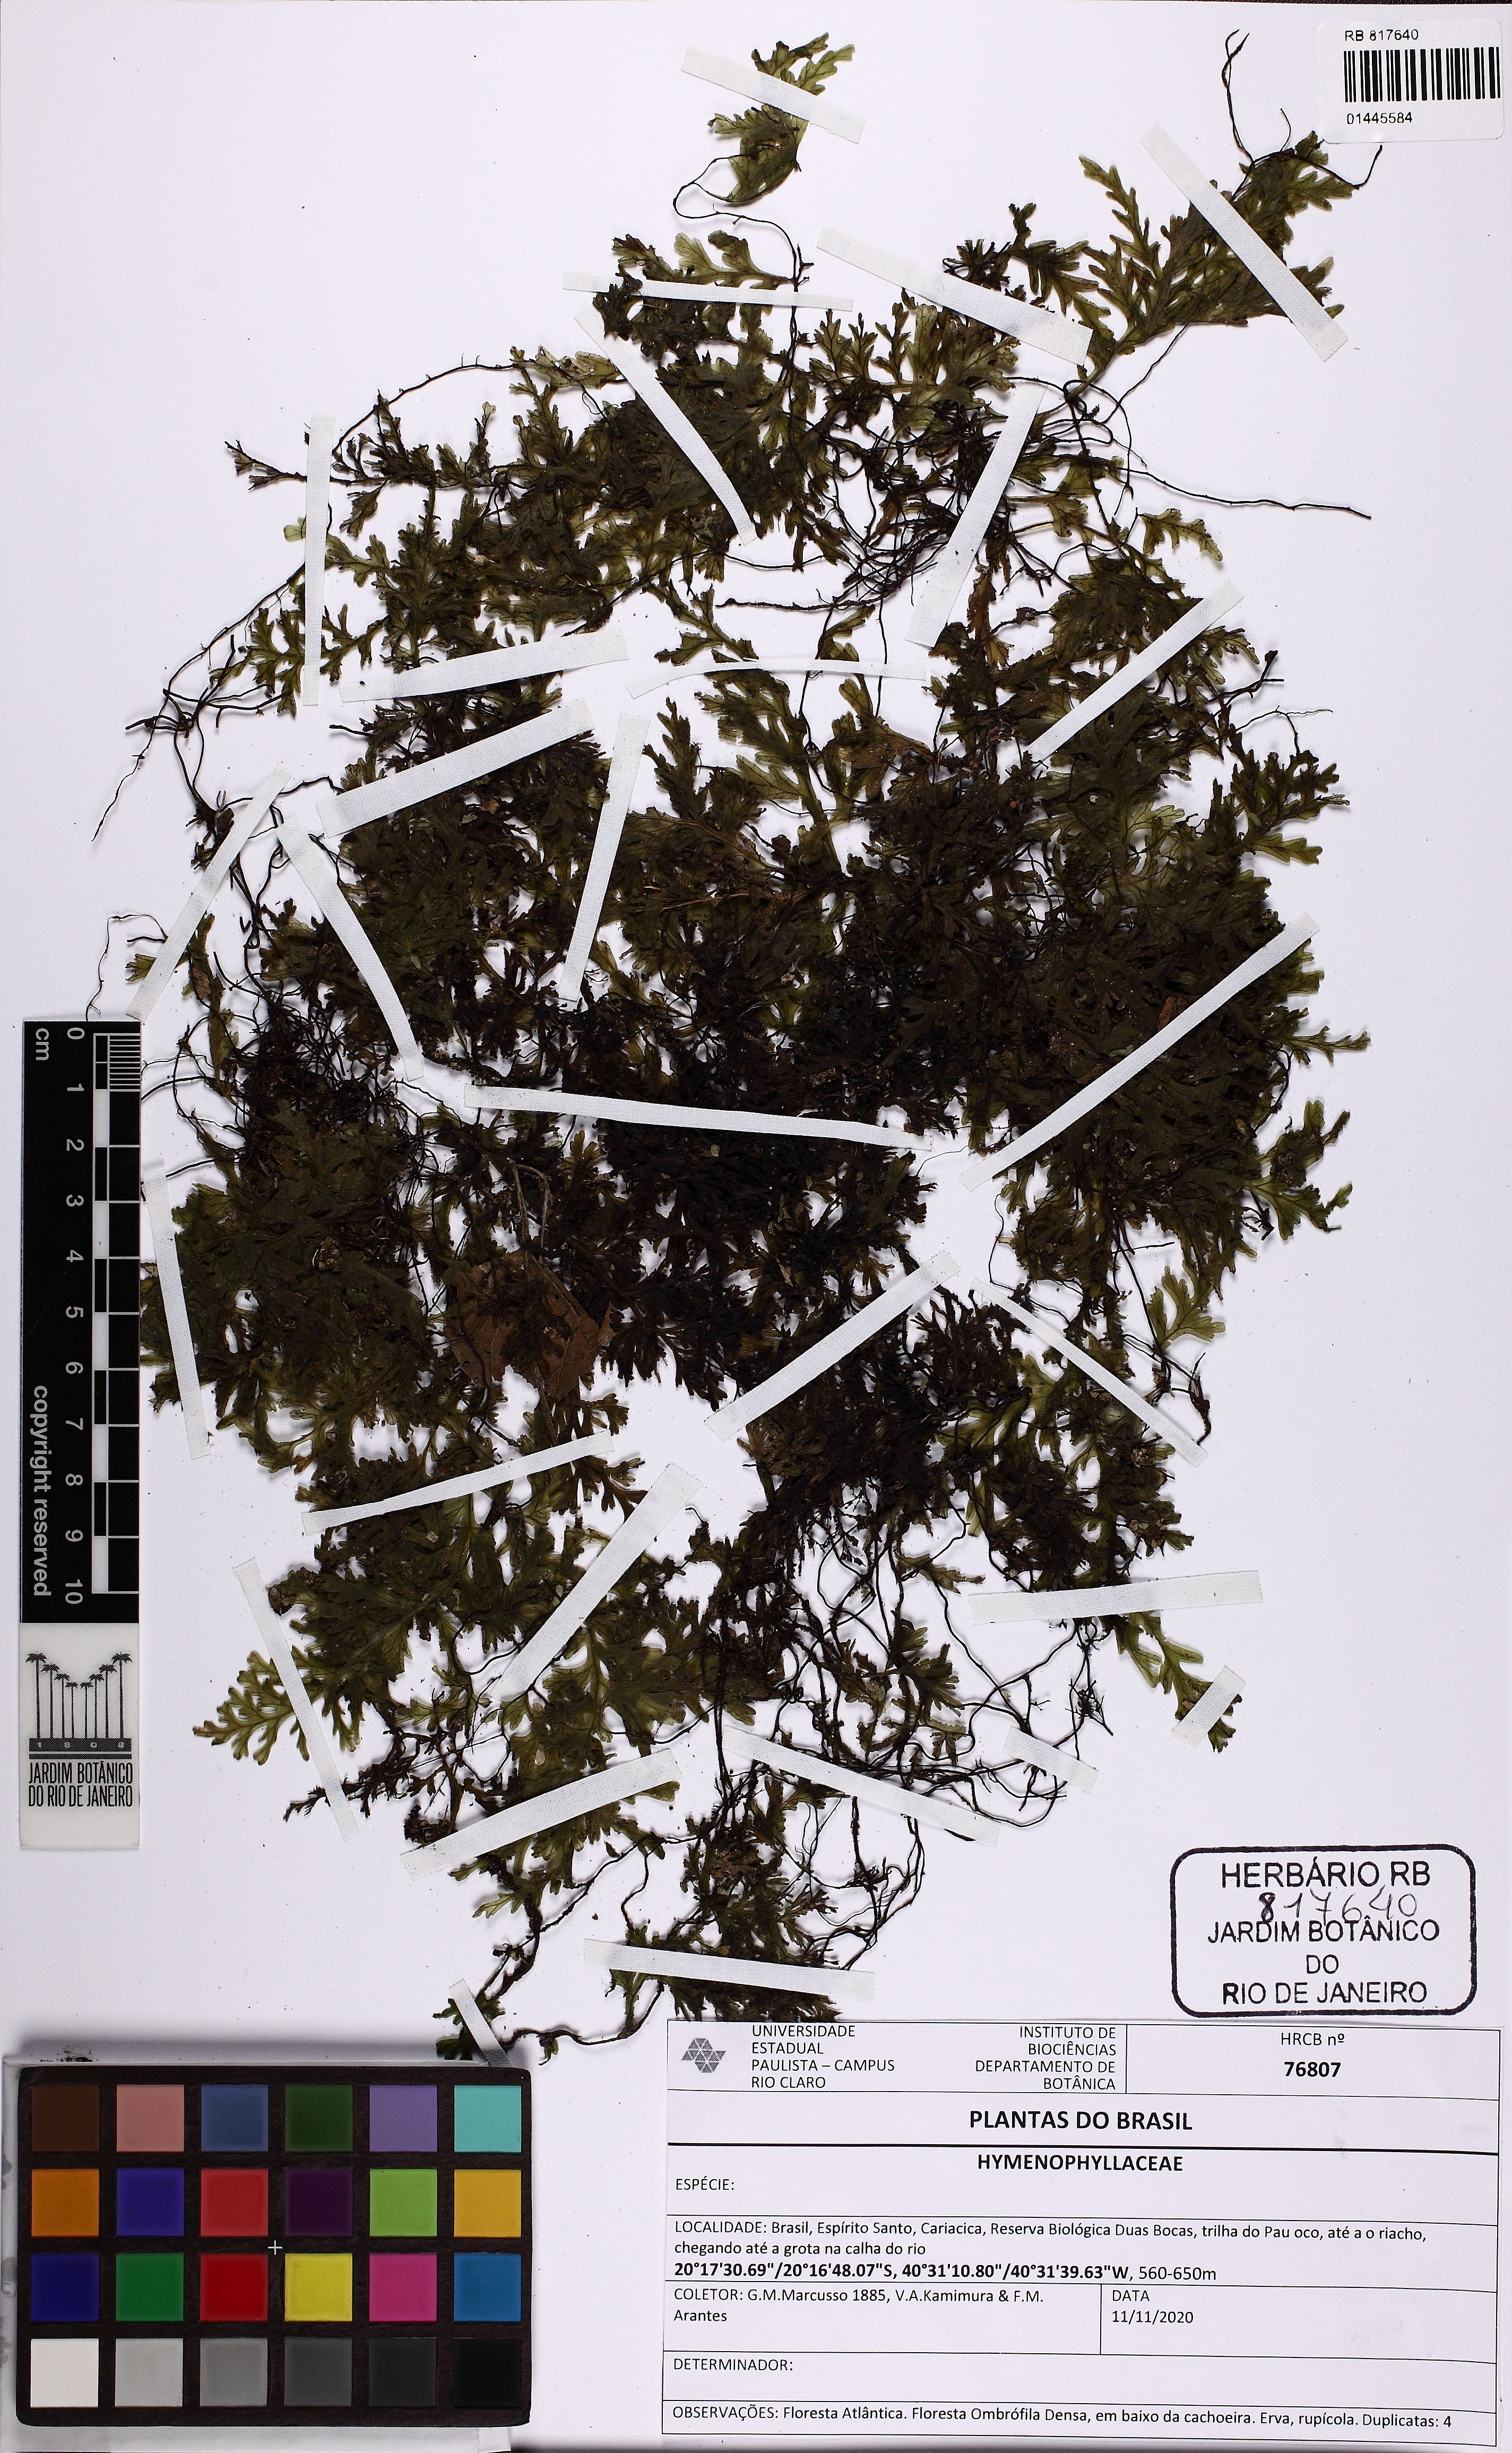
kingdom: Plantae
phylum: Tracheophyta
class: Polypodiopsida
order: Hymenophyllales
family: Hymenophyllaceae
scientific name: Hymenophyllaceae
